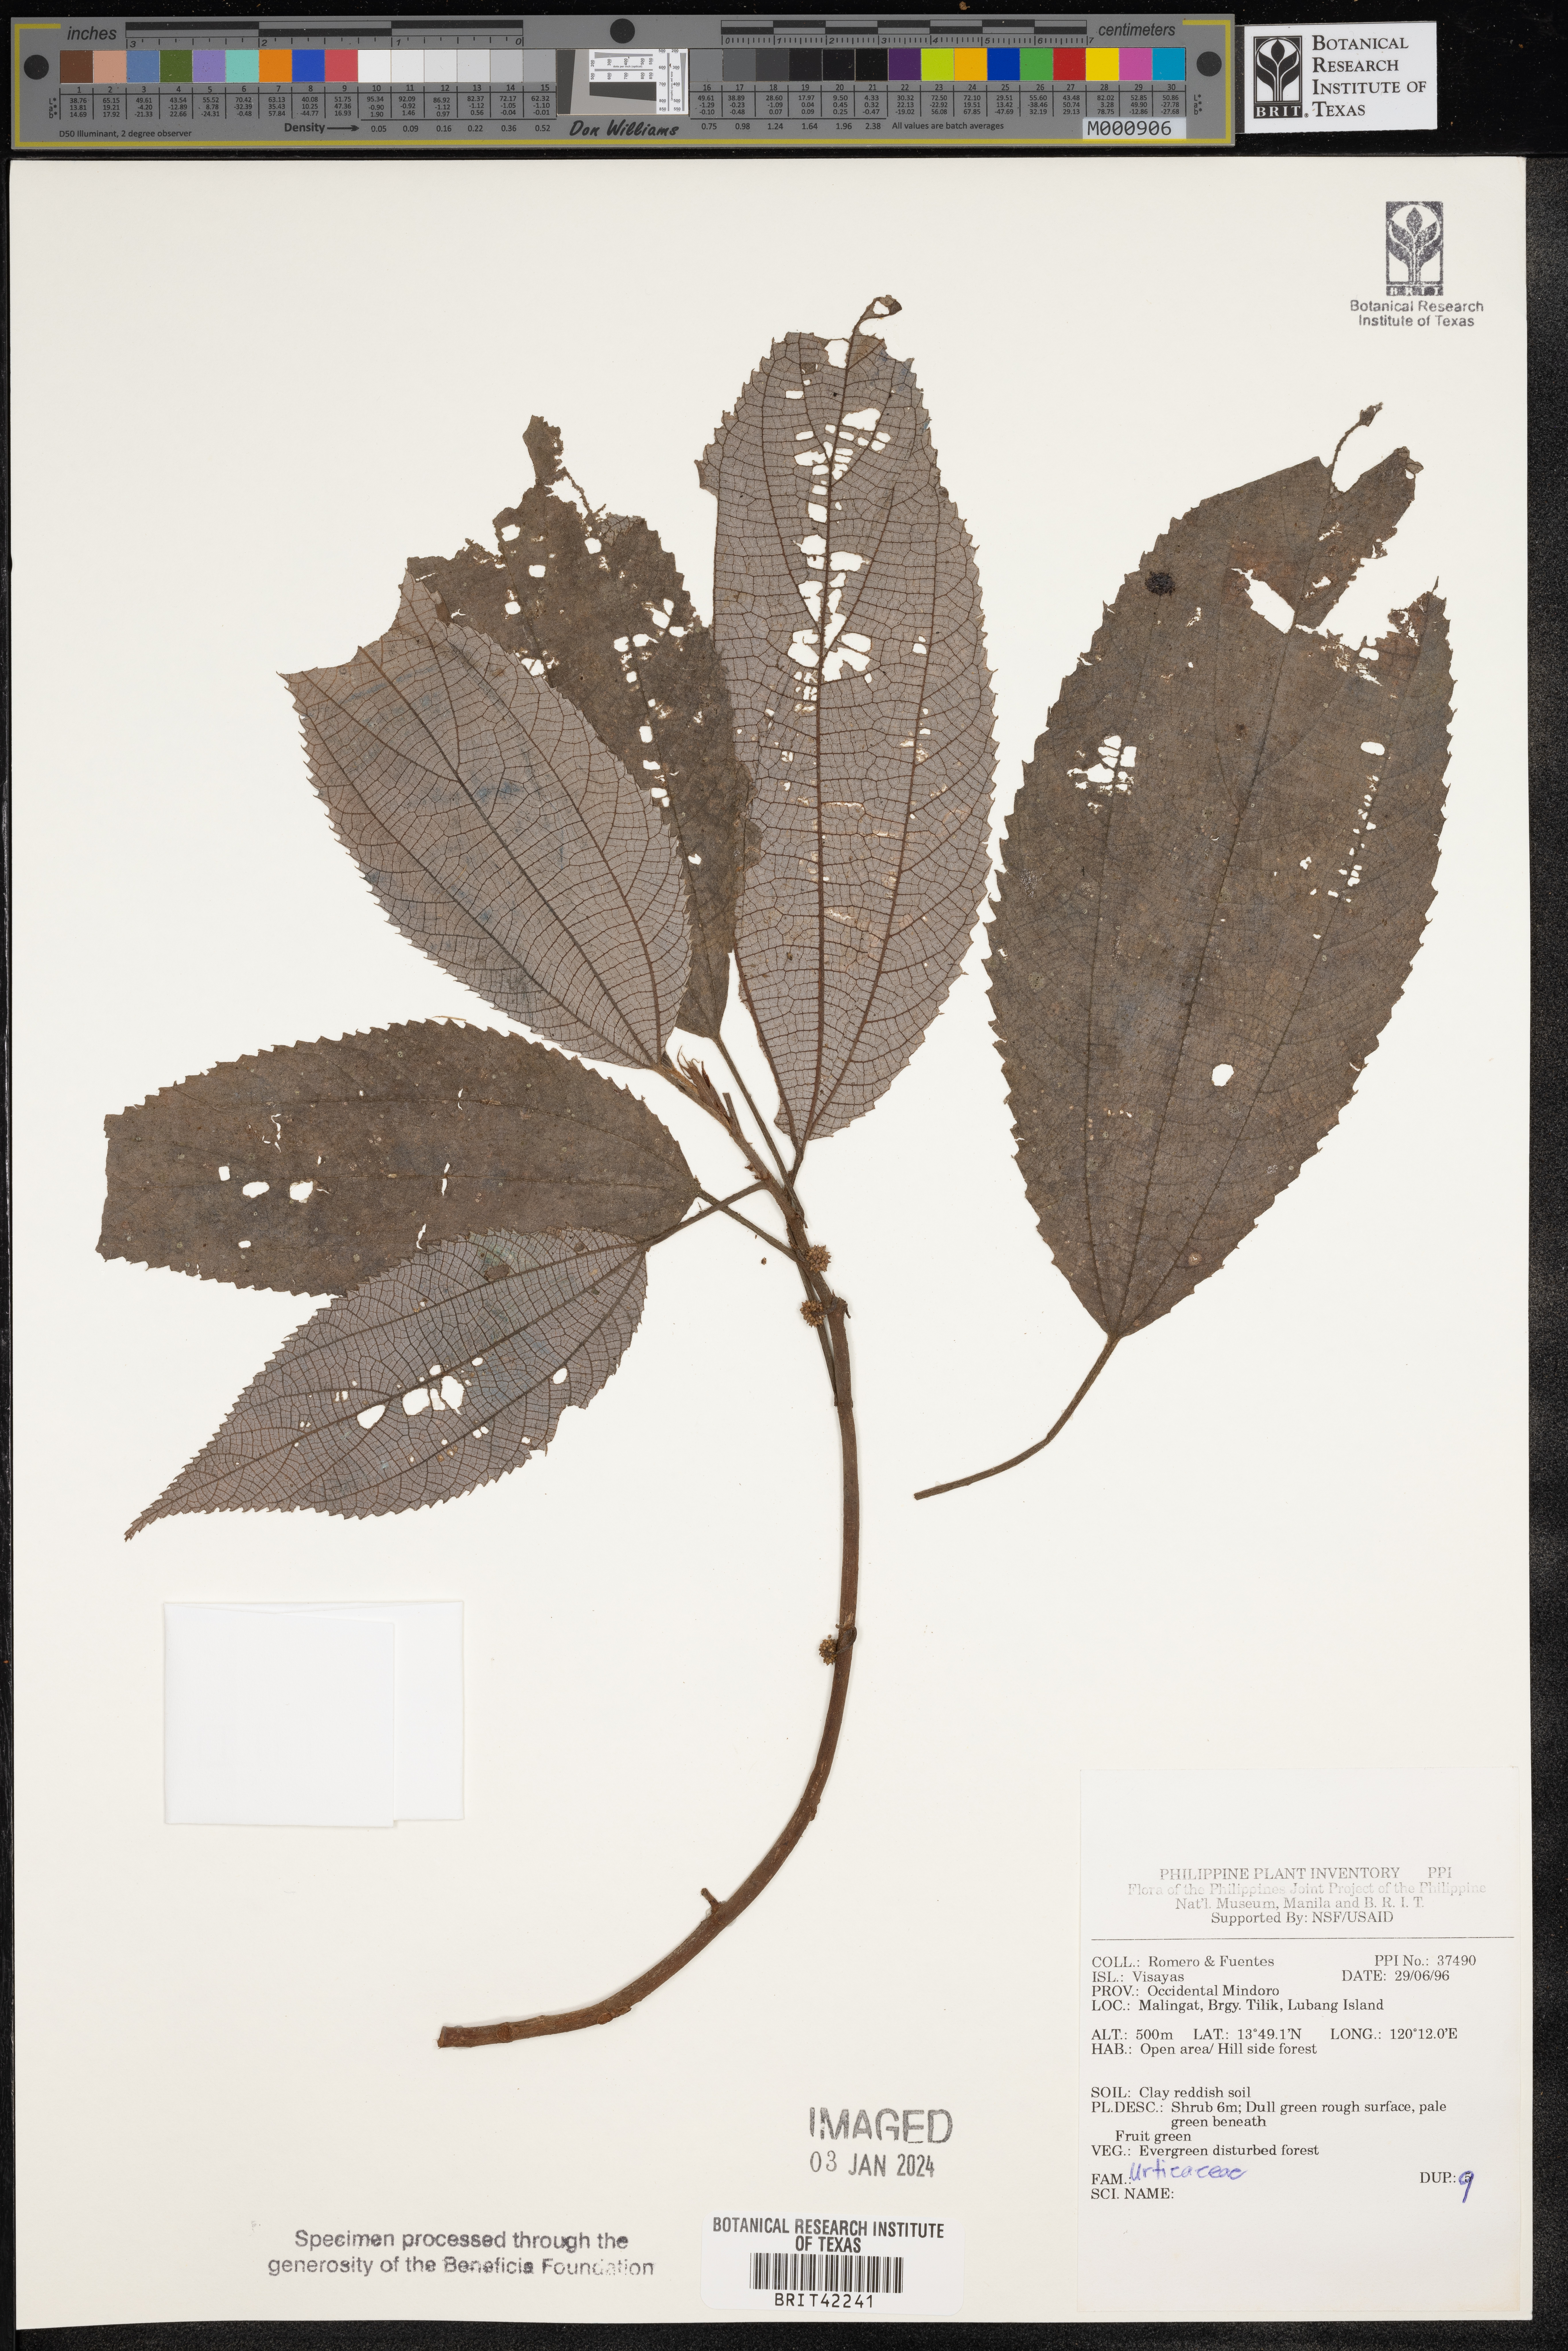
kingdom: Plantae
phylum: Tracheophyta
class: Magnoliopsida
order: Rosales
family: Urticaceae
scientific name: Urticaceae
